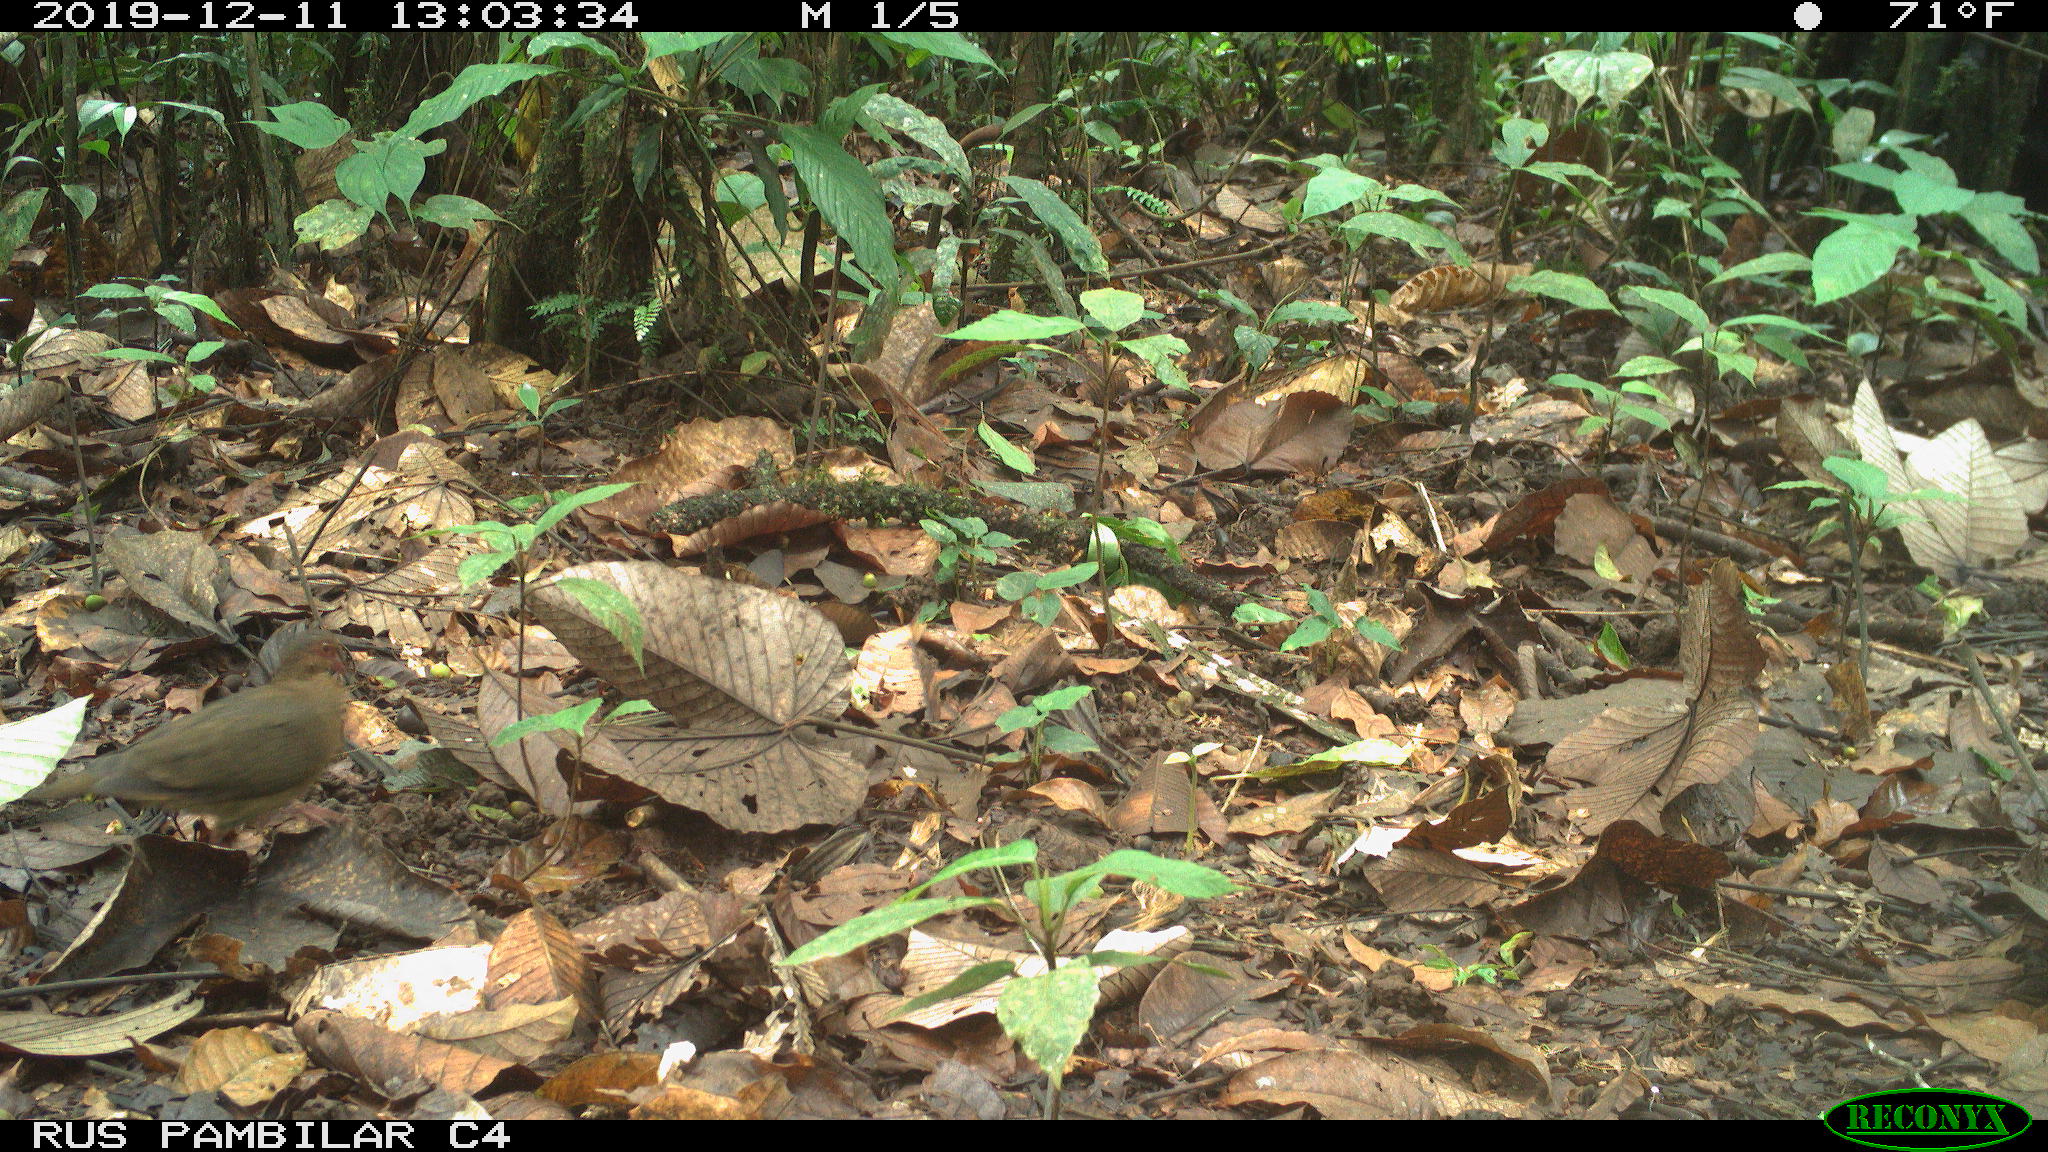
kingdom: Animalia
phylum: Chordata
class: Aves
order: Columbiformes
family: Columbidae
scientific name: Columbidae
